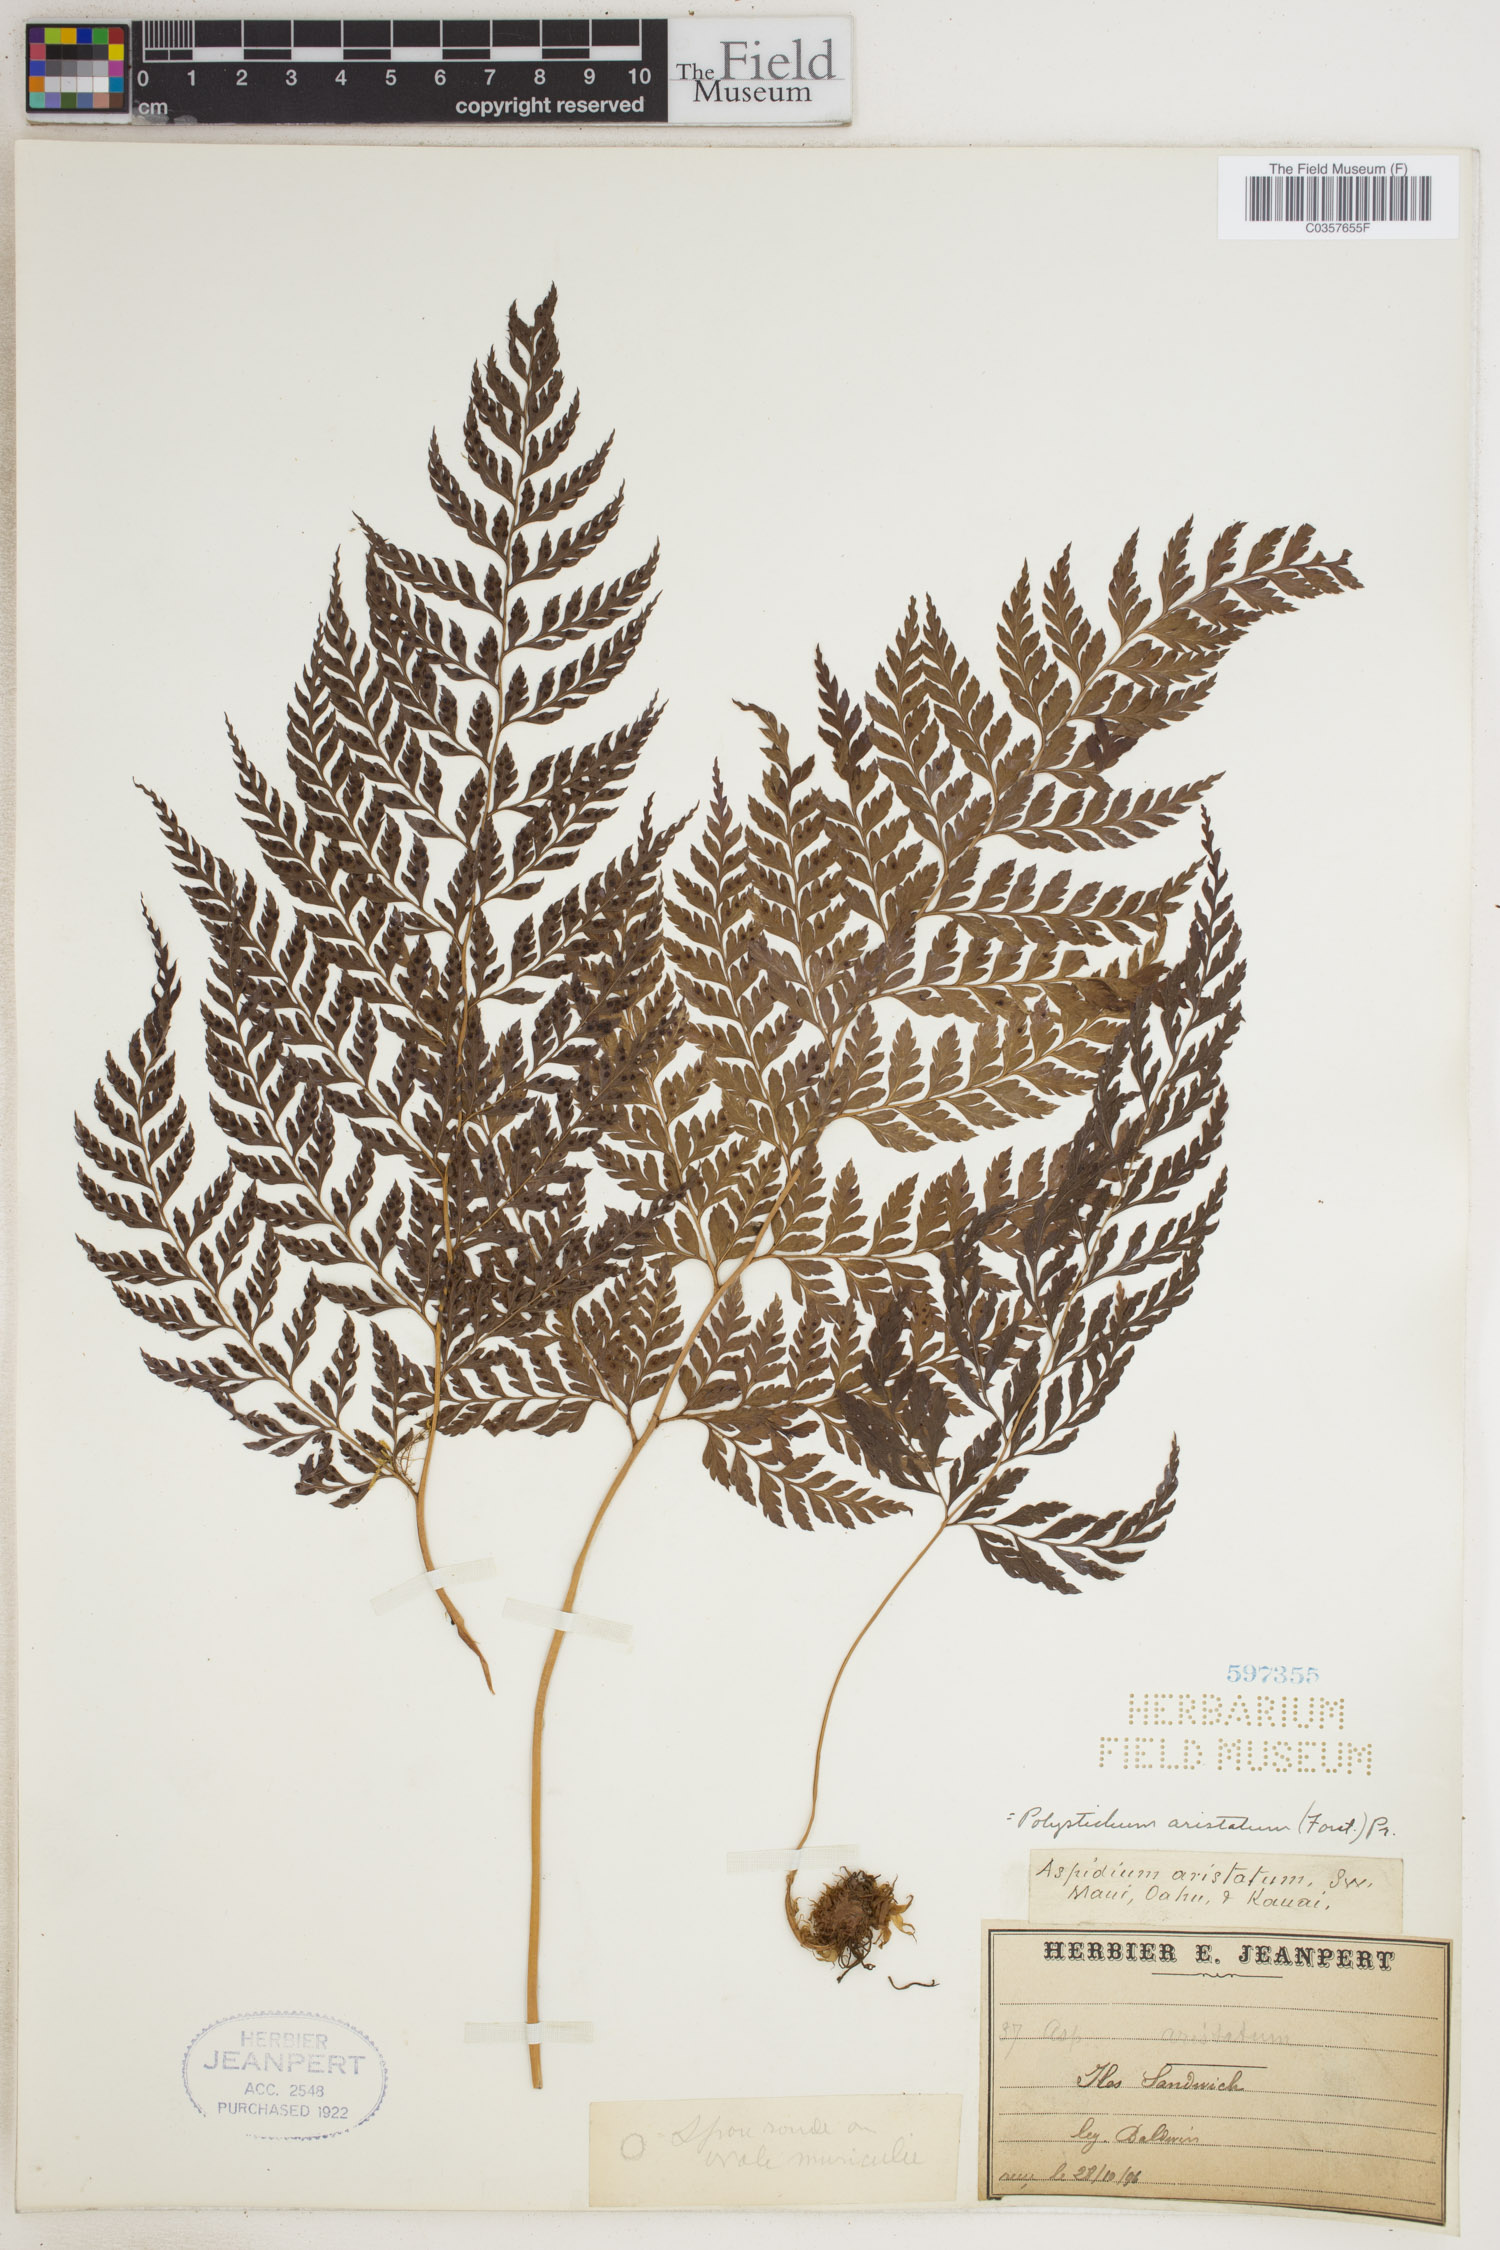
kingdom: Plantae
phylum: Tracheophyta
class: Polypodiopsida
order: Polypodiales
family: Dryopteridaceae
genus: Arachniodes
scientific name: Arachniodes aristata
